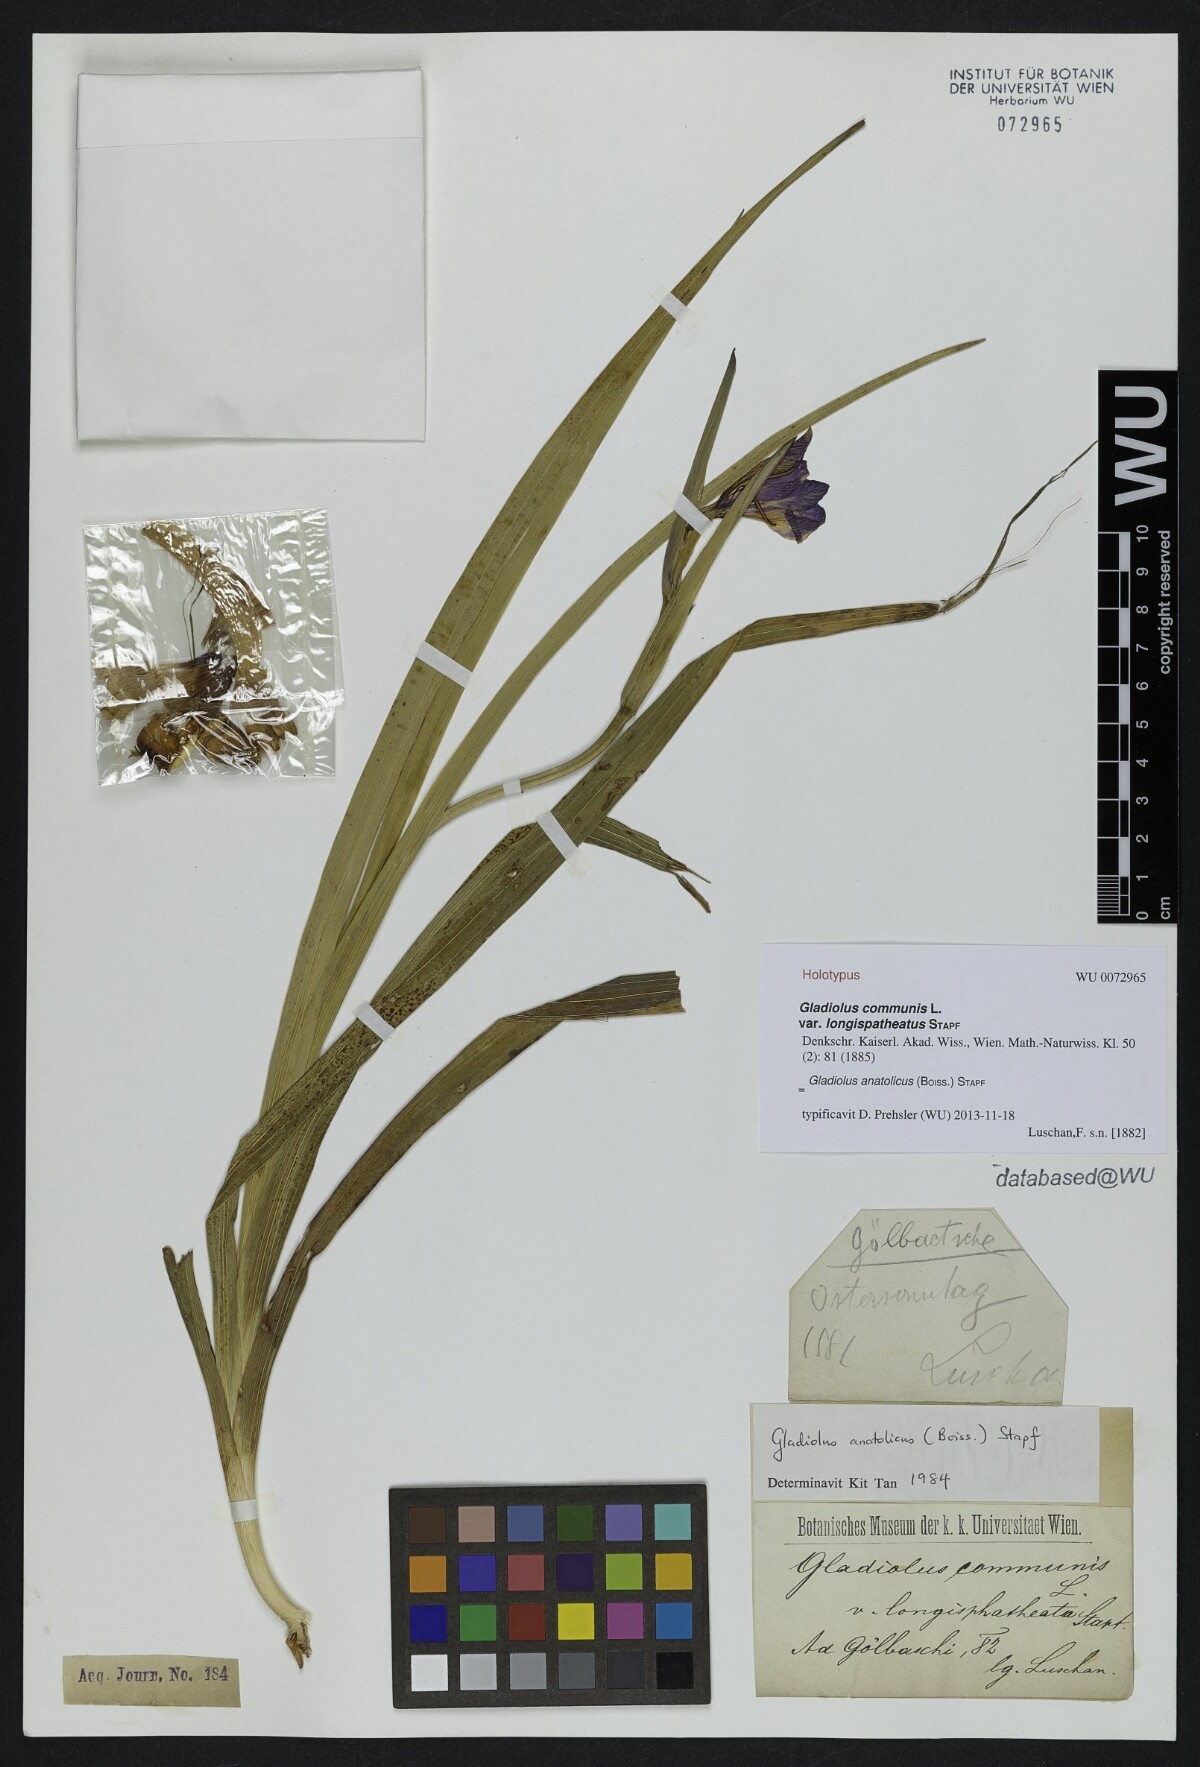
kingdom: Plantae
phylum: Tracheophyta
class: Liliopsida
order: Asparagales
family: Iridaceae
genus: Gladiolus
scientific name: Gladiolus anatolicus
